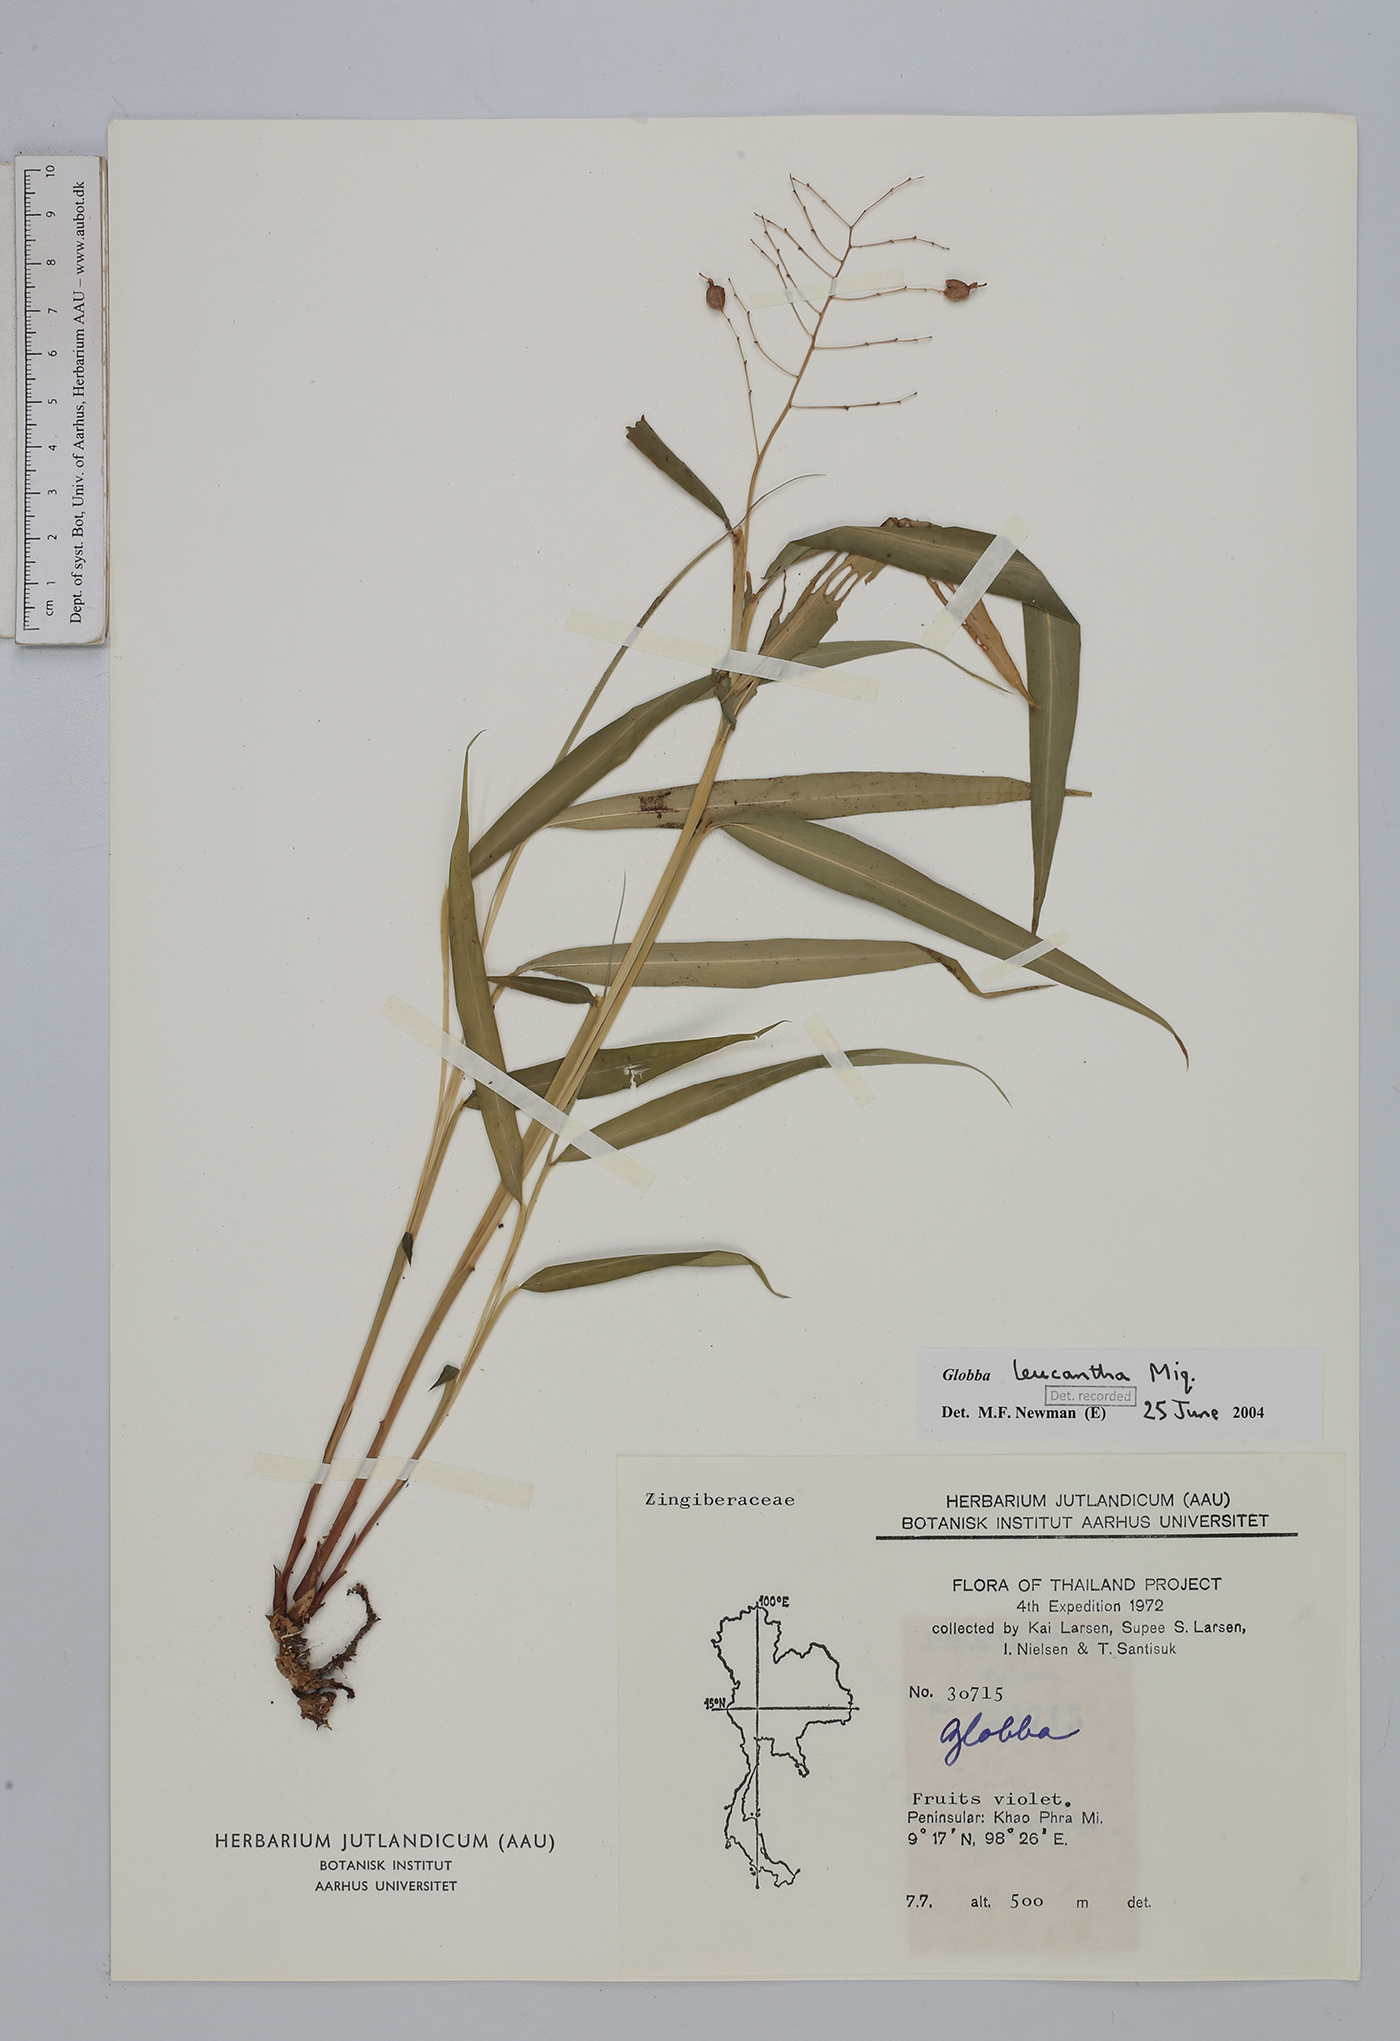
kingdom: Plantae
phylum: Tracheophyta
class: Liliopsida
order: Zingiberales
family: Zingiberaceae
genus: Globba
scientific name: Globba leucantha
